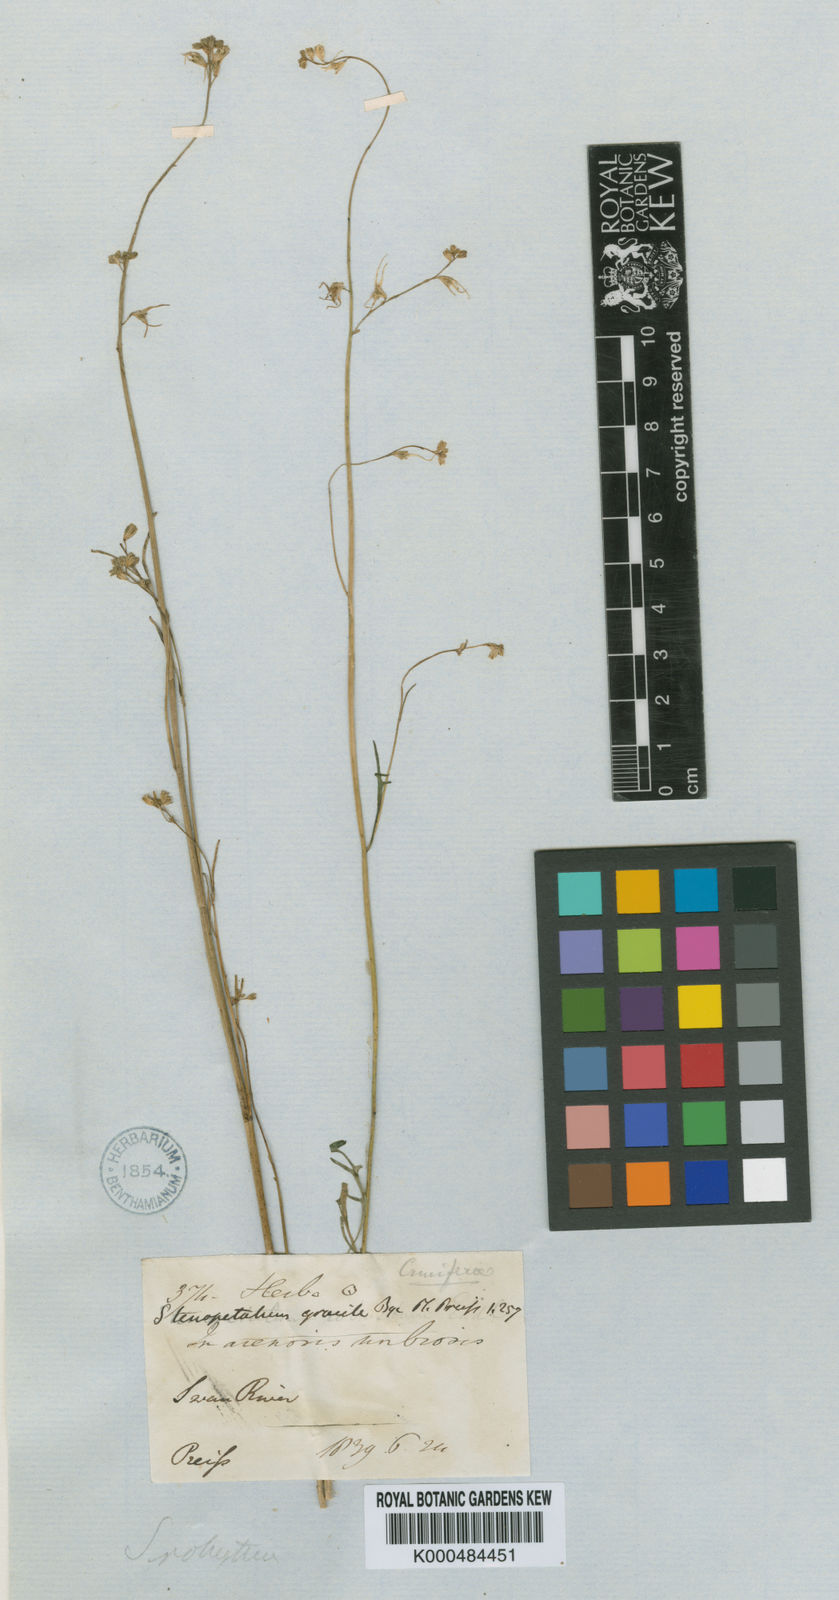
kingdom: Plantae
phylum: Tracheophyta
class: Magnoliopsida
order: Brassicales
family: Brassicaceae
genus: Stenopetalum
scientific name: Stenopetalum robustum
